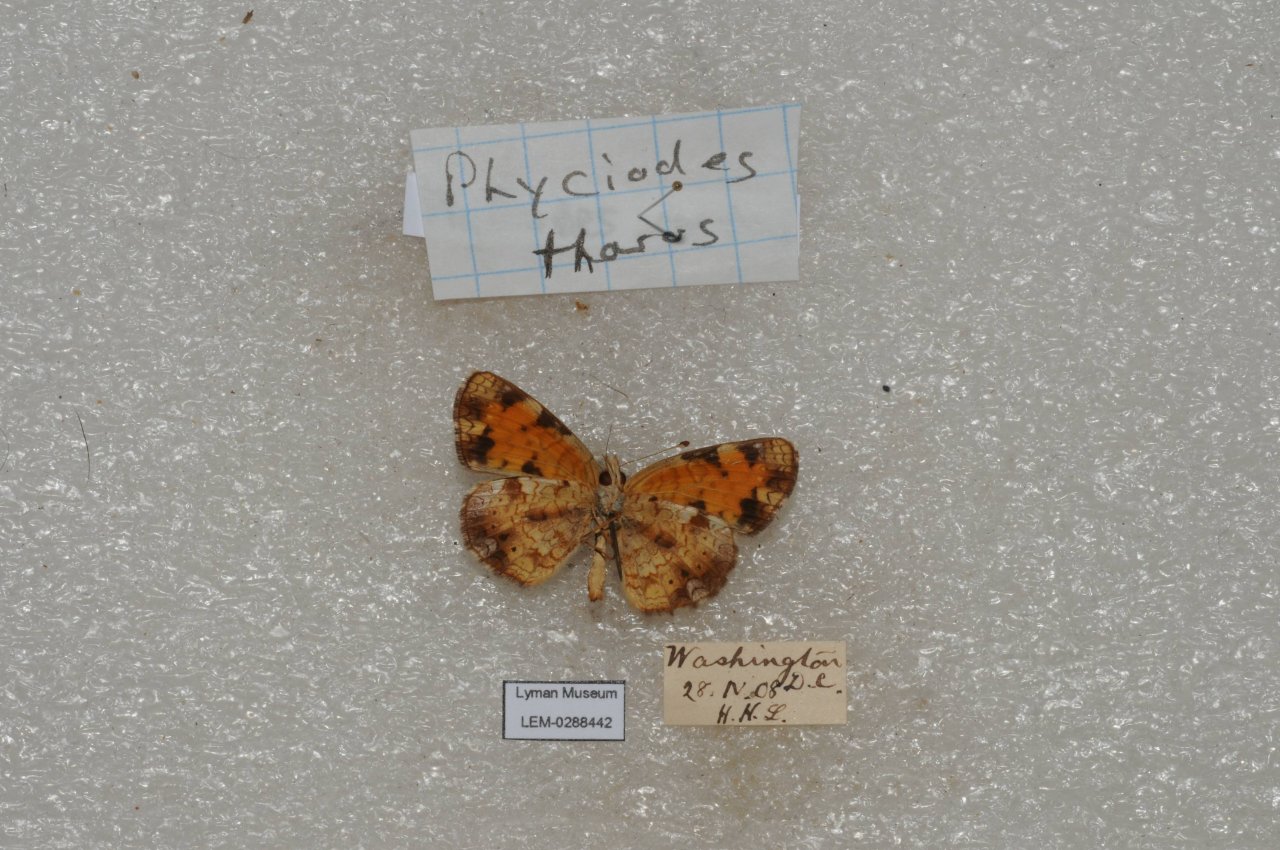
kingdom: Animalia
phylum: Arthropoda
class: Insecta
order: Lepidoptera
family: Nymphalidae
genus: Phyciodes
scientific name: Phyciodes tharos
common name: Pearl Crescent
